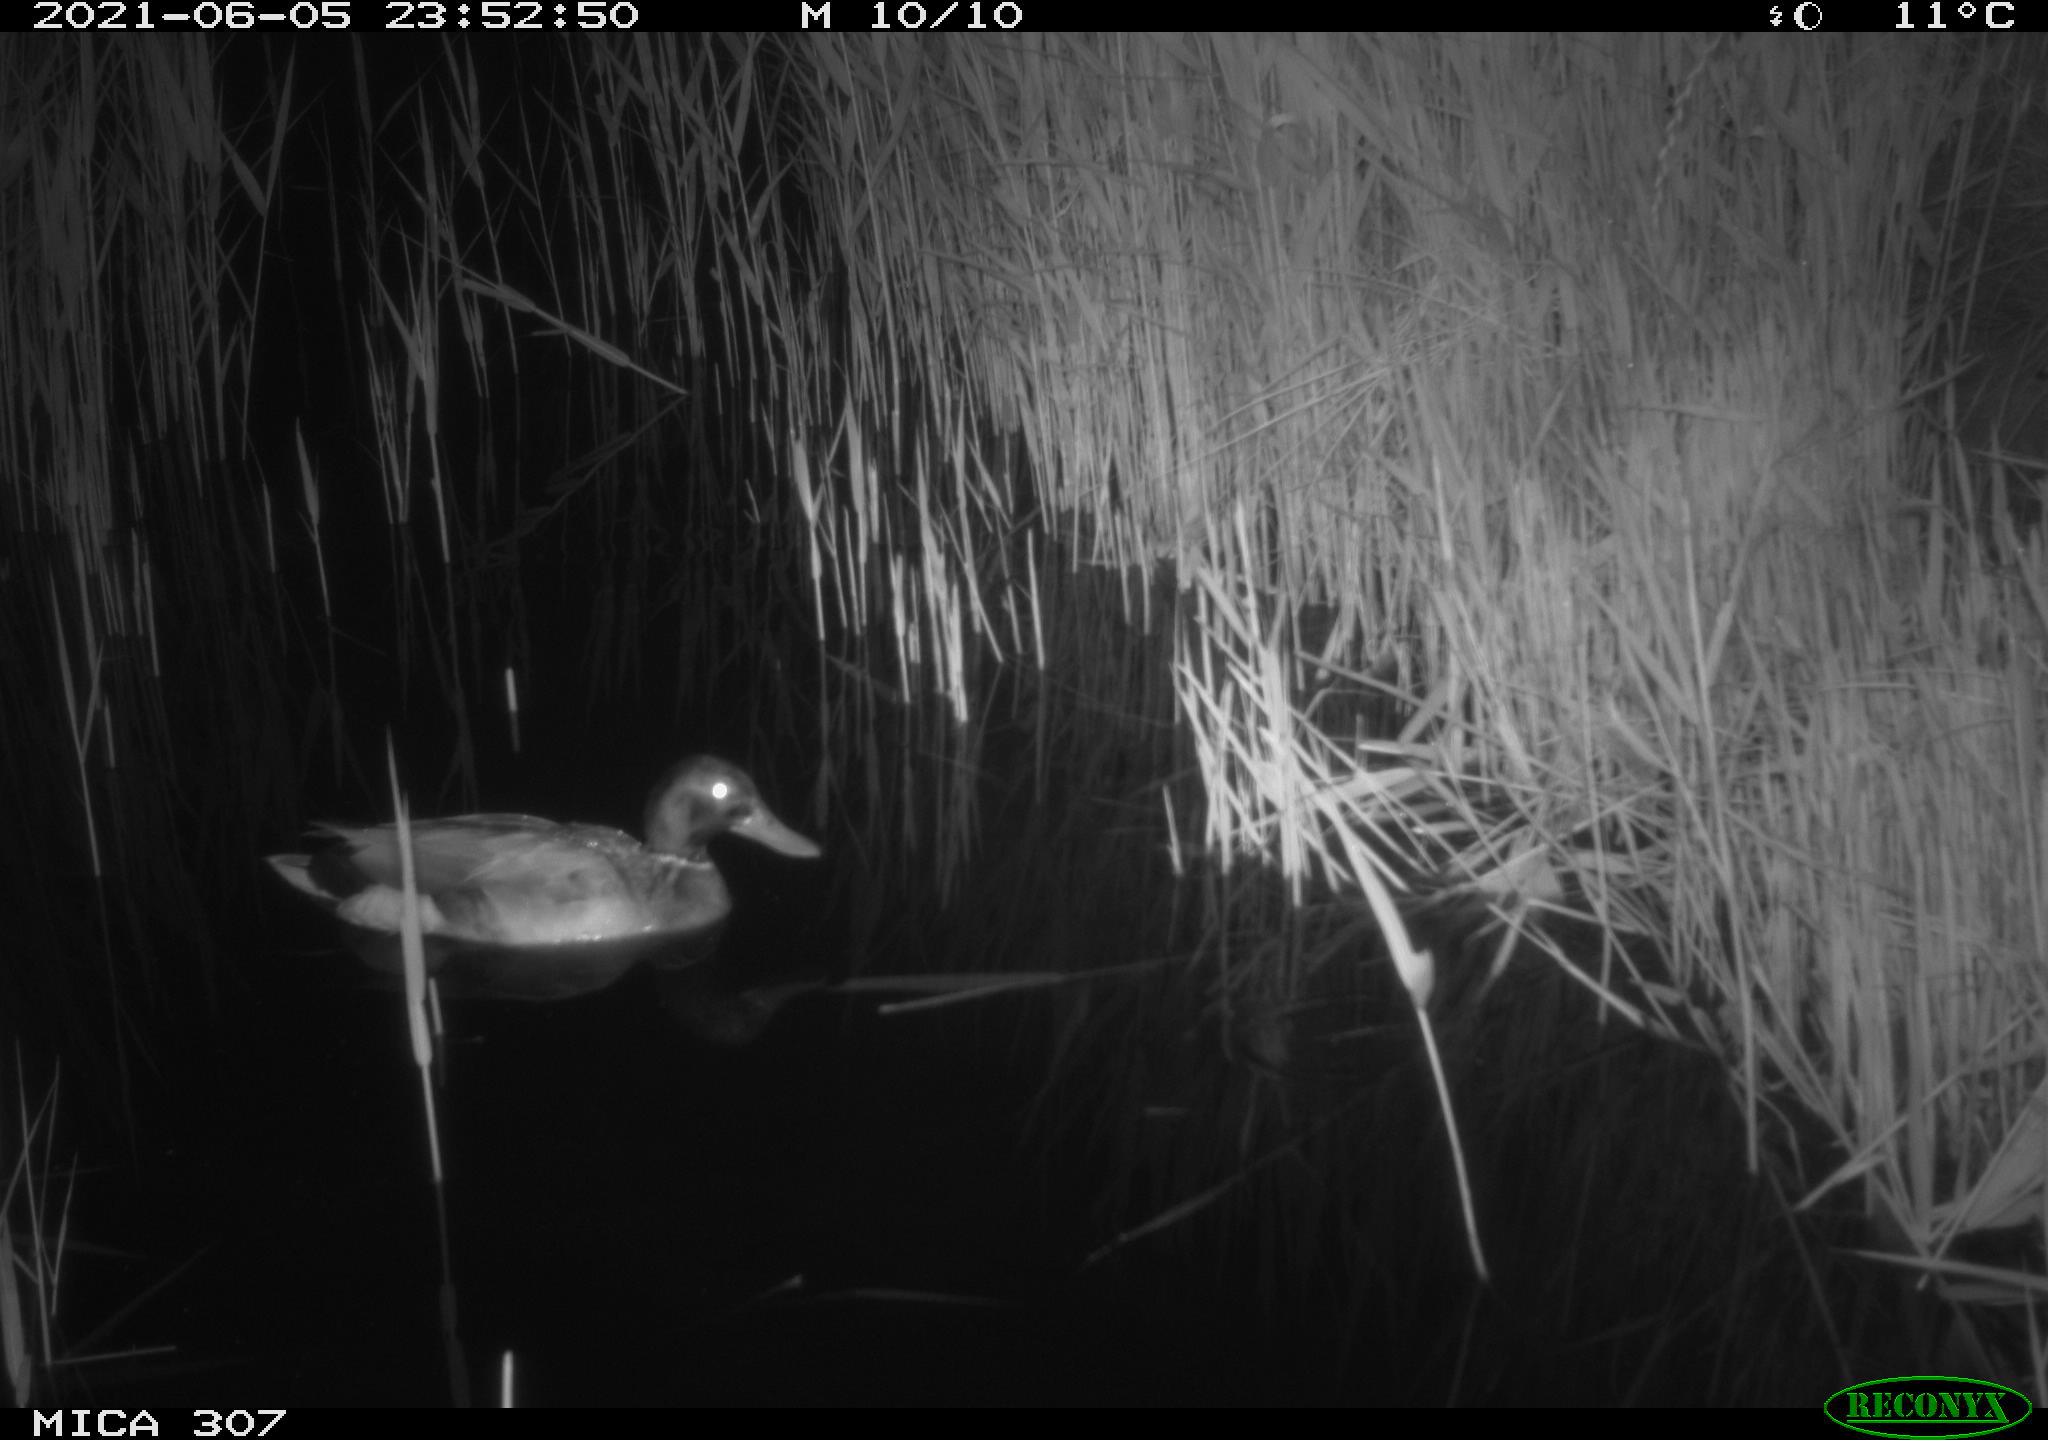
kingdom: Animalia
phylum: Chordata
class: Aves
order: Anseriformes
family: Anatidae
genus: Anas
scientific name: Anas platyrhynchos
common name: Mallard
